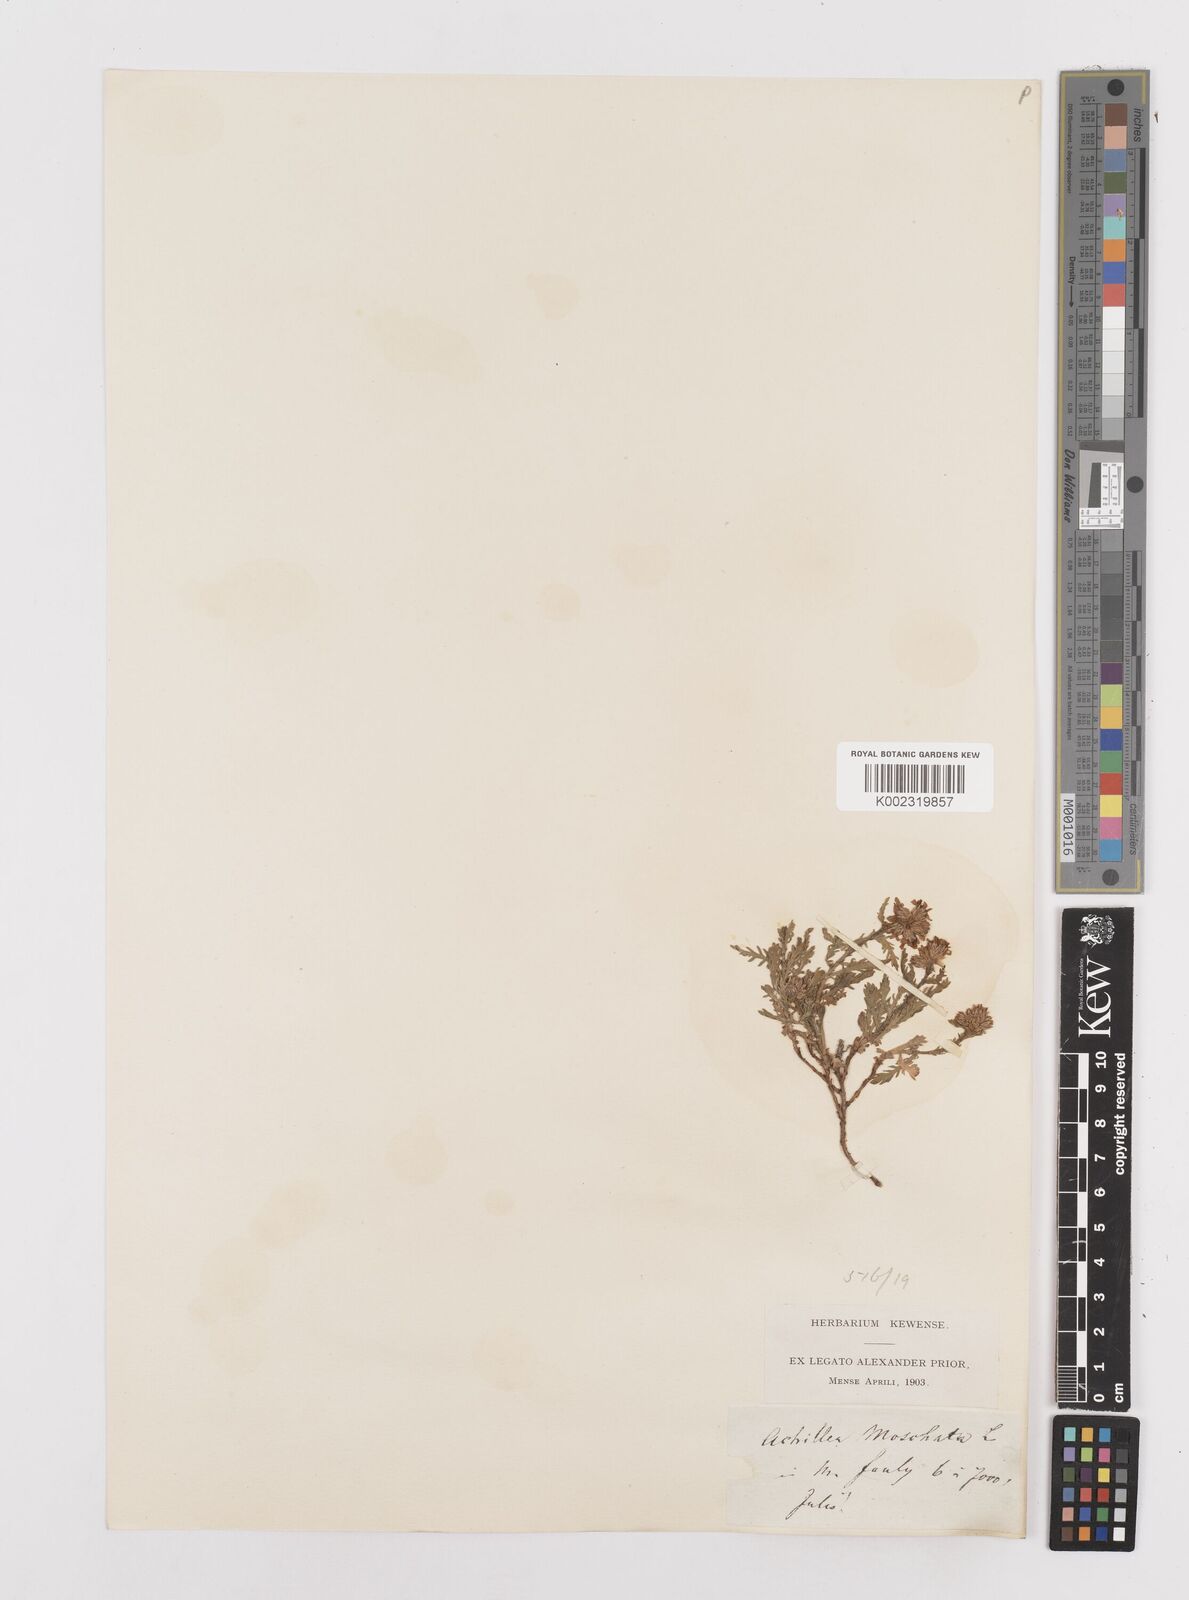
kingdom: Plantae
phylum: Tracheophyta
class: Magnoliopsida
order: Asterales
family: Asteraceae
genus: Achillea
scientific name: Achillea erba-rotta
